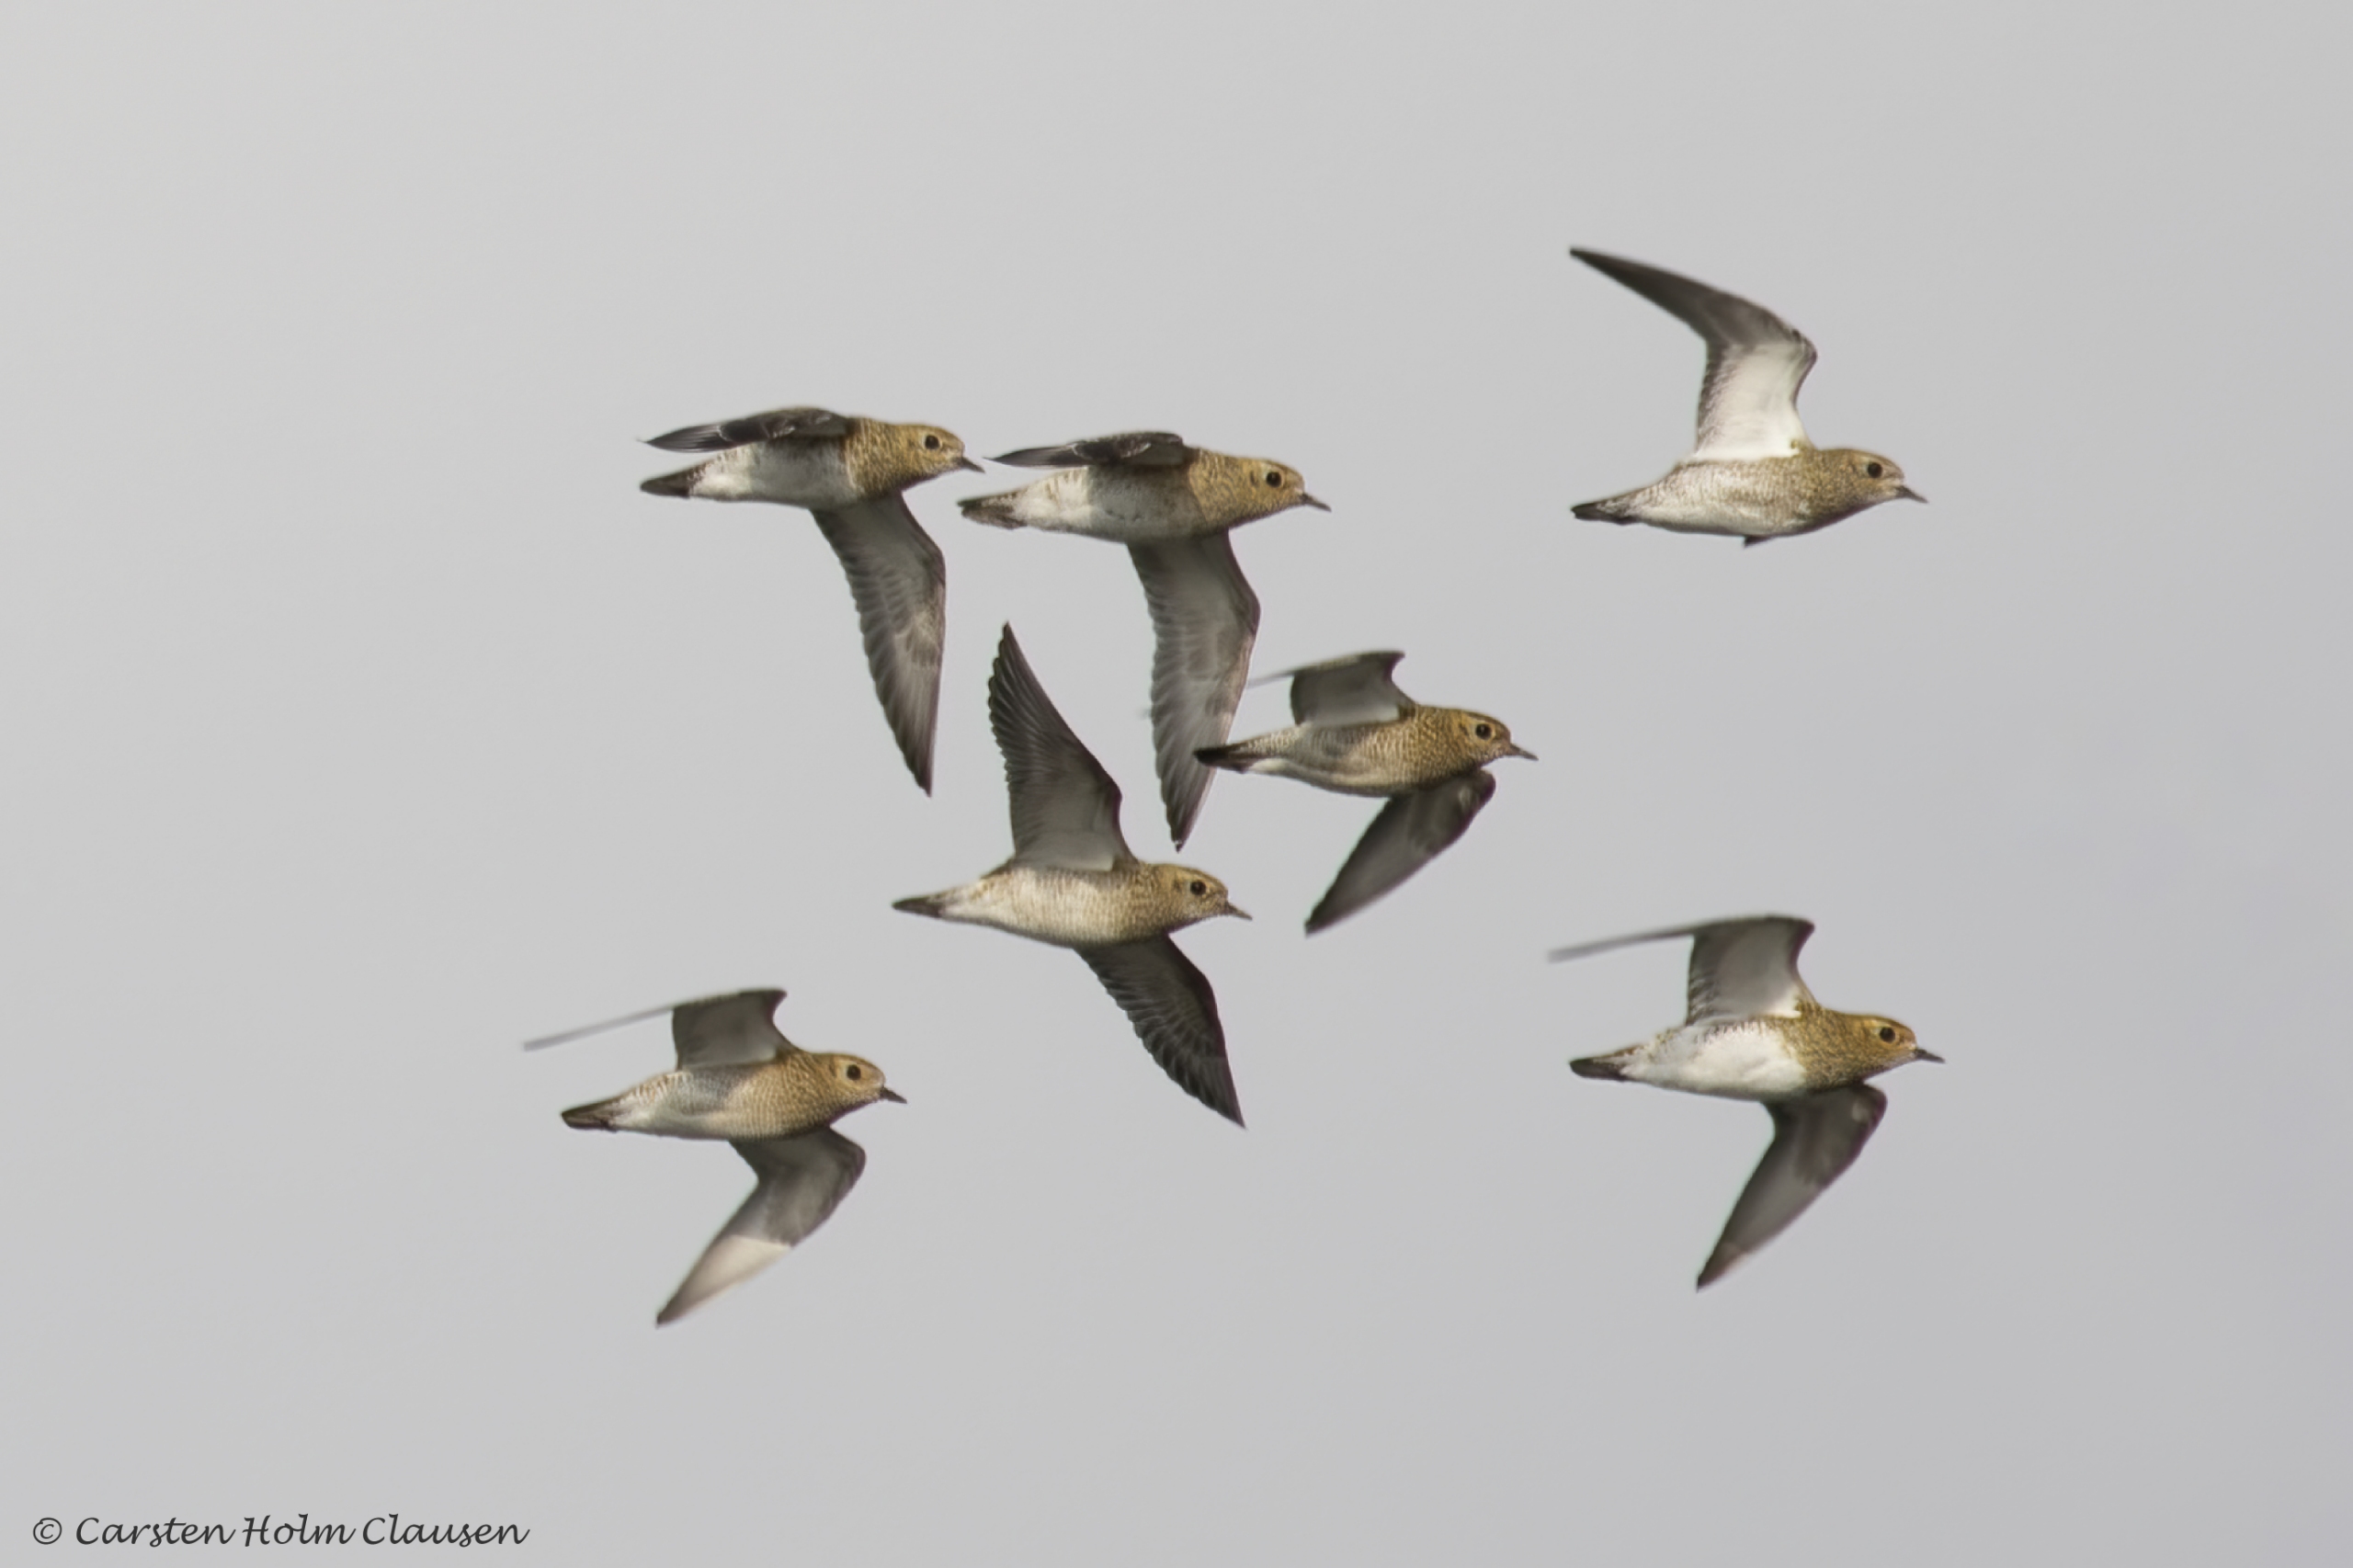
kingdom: Animalia
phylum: Chordata
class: Aves
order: Charadriiformes
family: Charadriidae
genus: Pluvialis
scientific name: Pluvialis apricaria
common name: Hjejle
